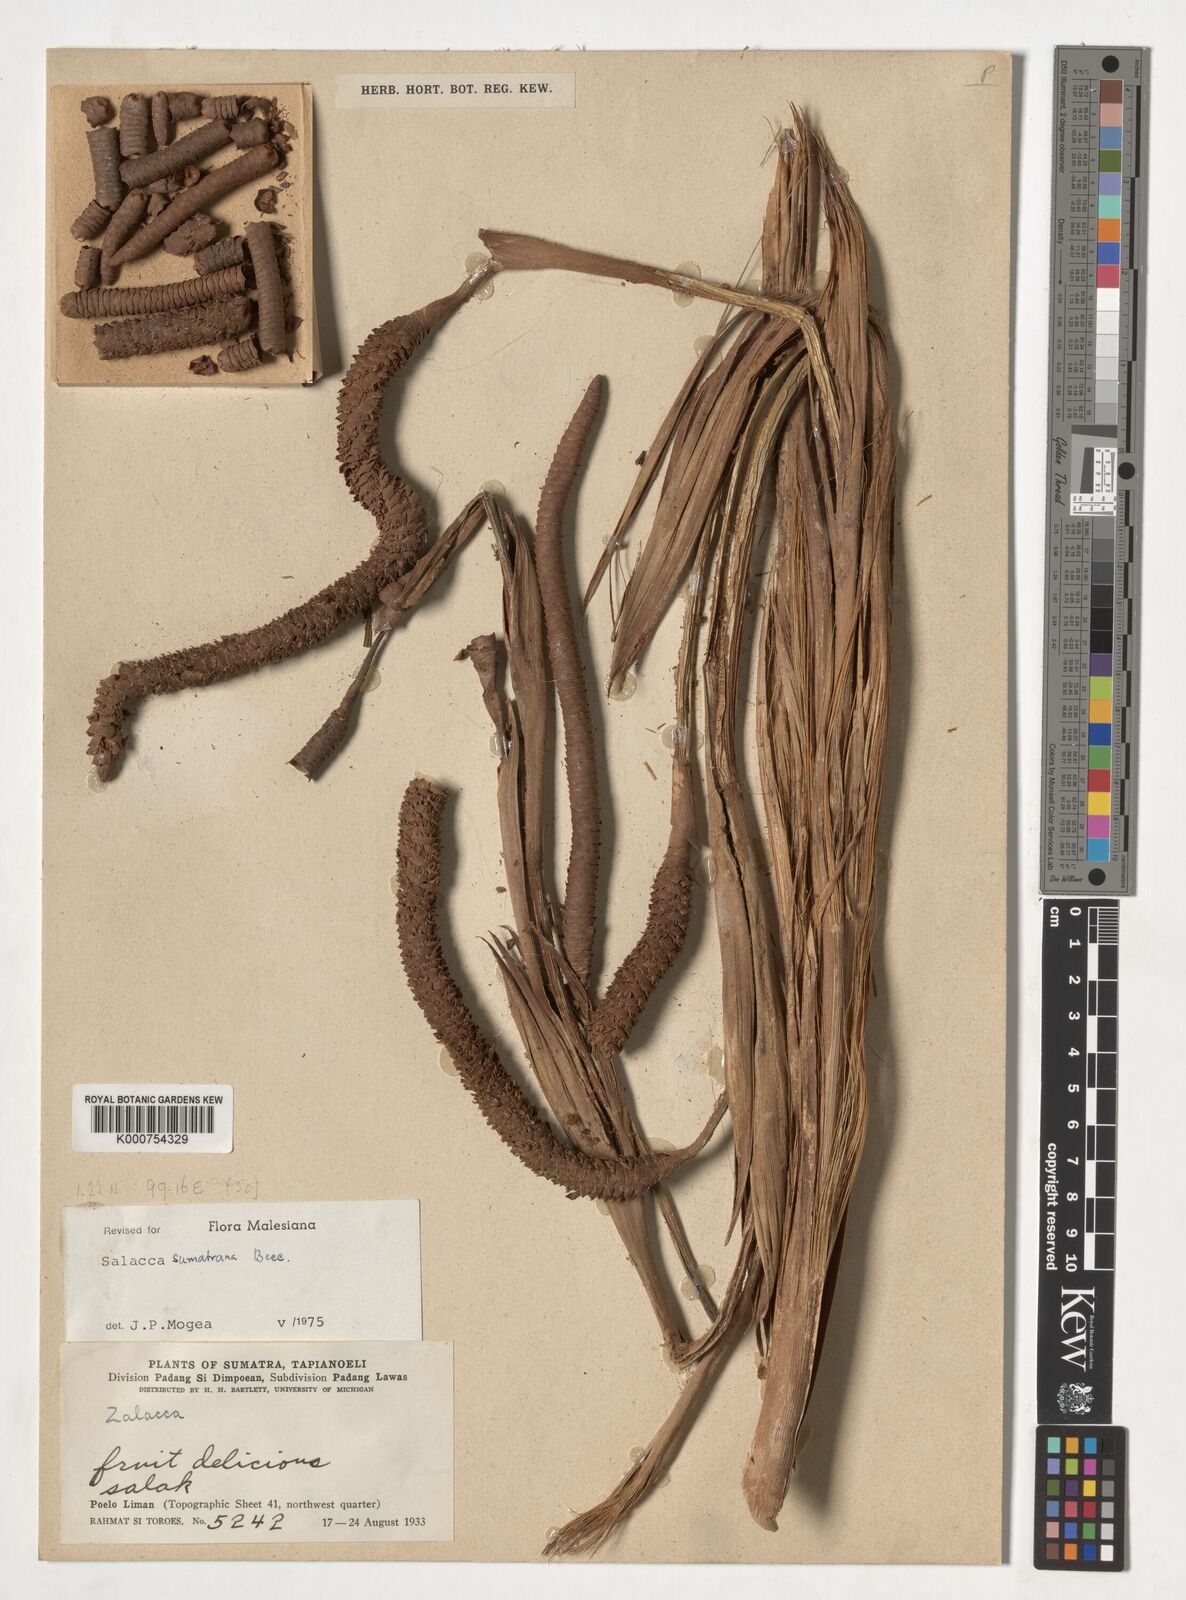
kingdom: Plantae
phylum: Tracheophyta
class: Liliopsida
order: Arecales
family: Arecaceae
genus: Salacca
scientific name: Salacca sumatrana
